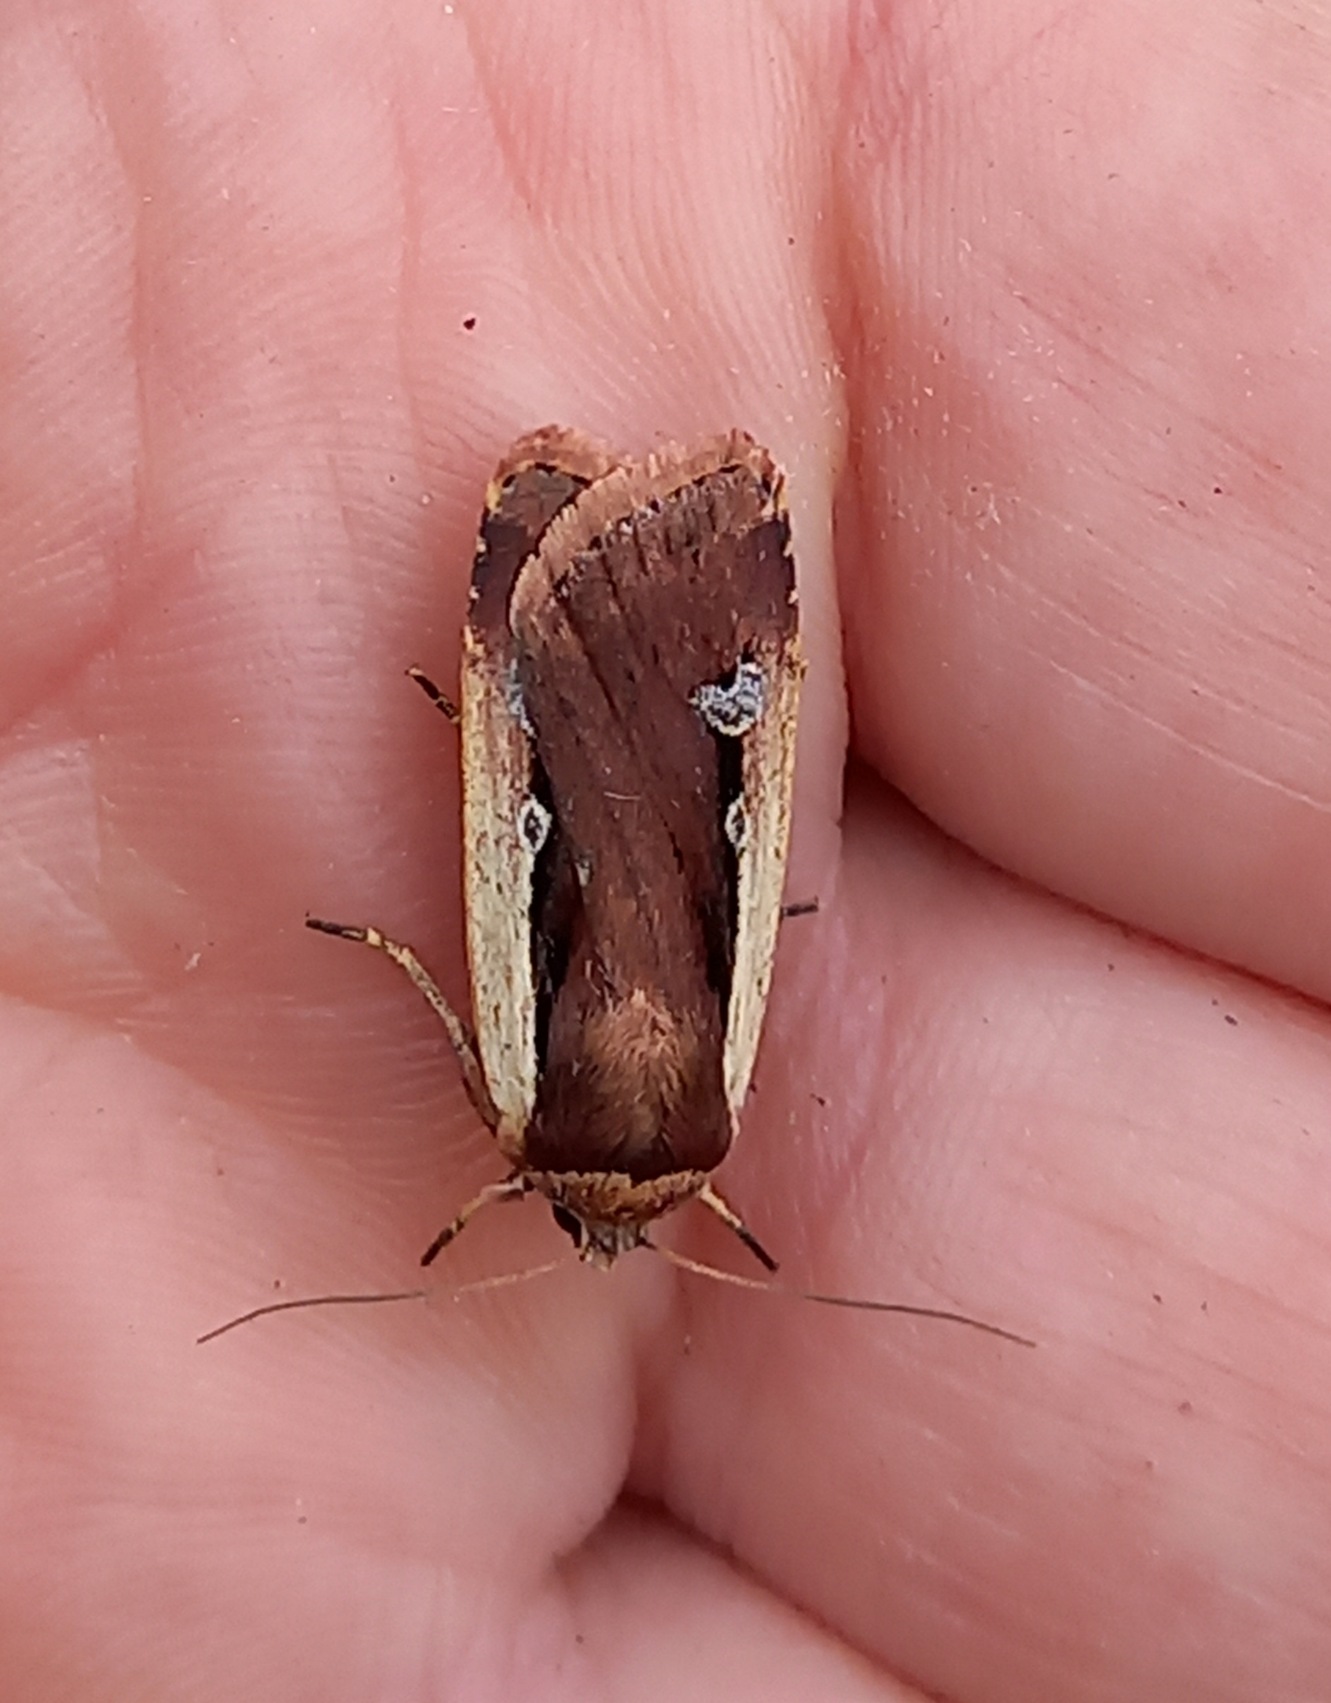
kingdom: Animalia
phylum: Arthropoda
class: Insecta
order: Lepidoptera
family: Noctuidae
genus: Ochropleura
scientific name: Ochropleura plecta
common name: Hvidrandet jordugle
